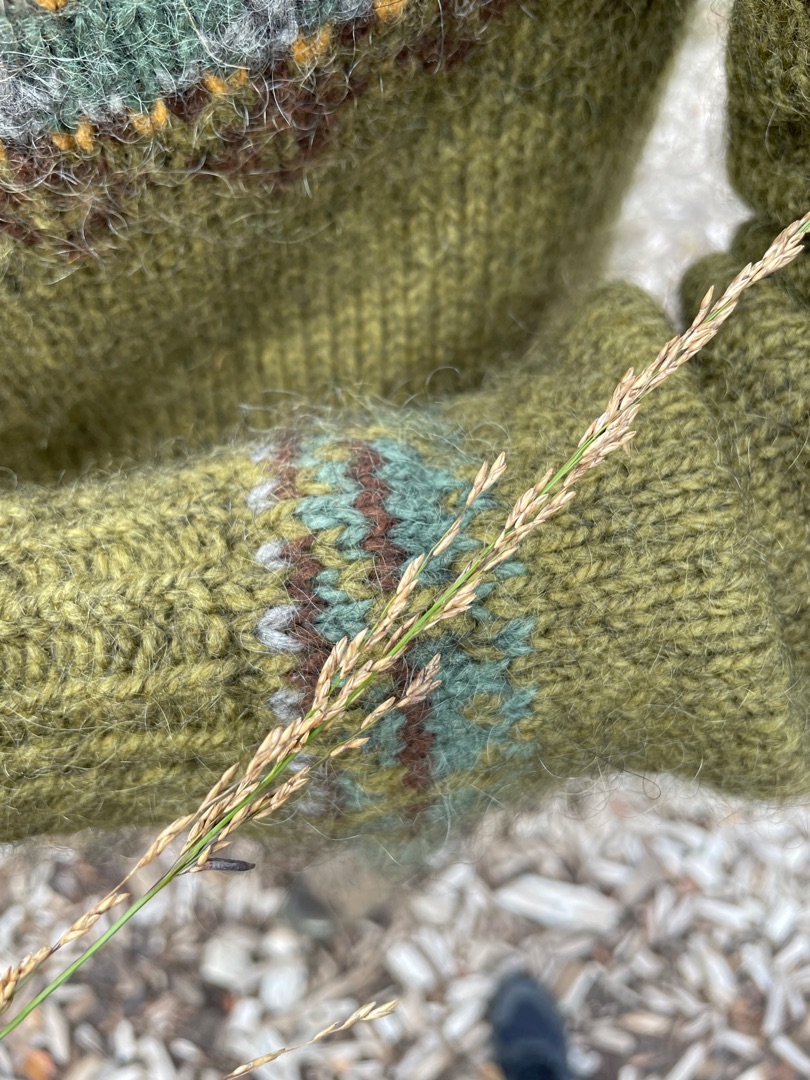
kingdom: Plantae
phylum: Tracheophyta
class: Liliopsida
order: Poales
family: Poaceae
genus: Molinia
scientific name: Molinia caerulea
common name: Blåtop
